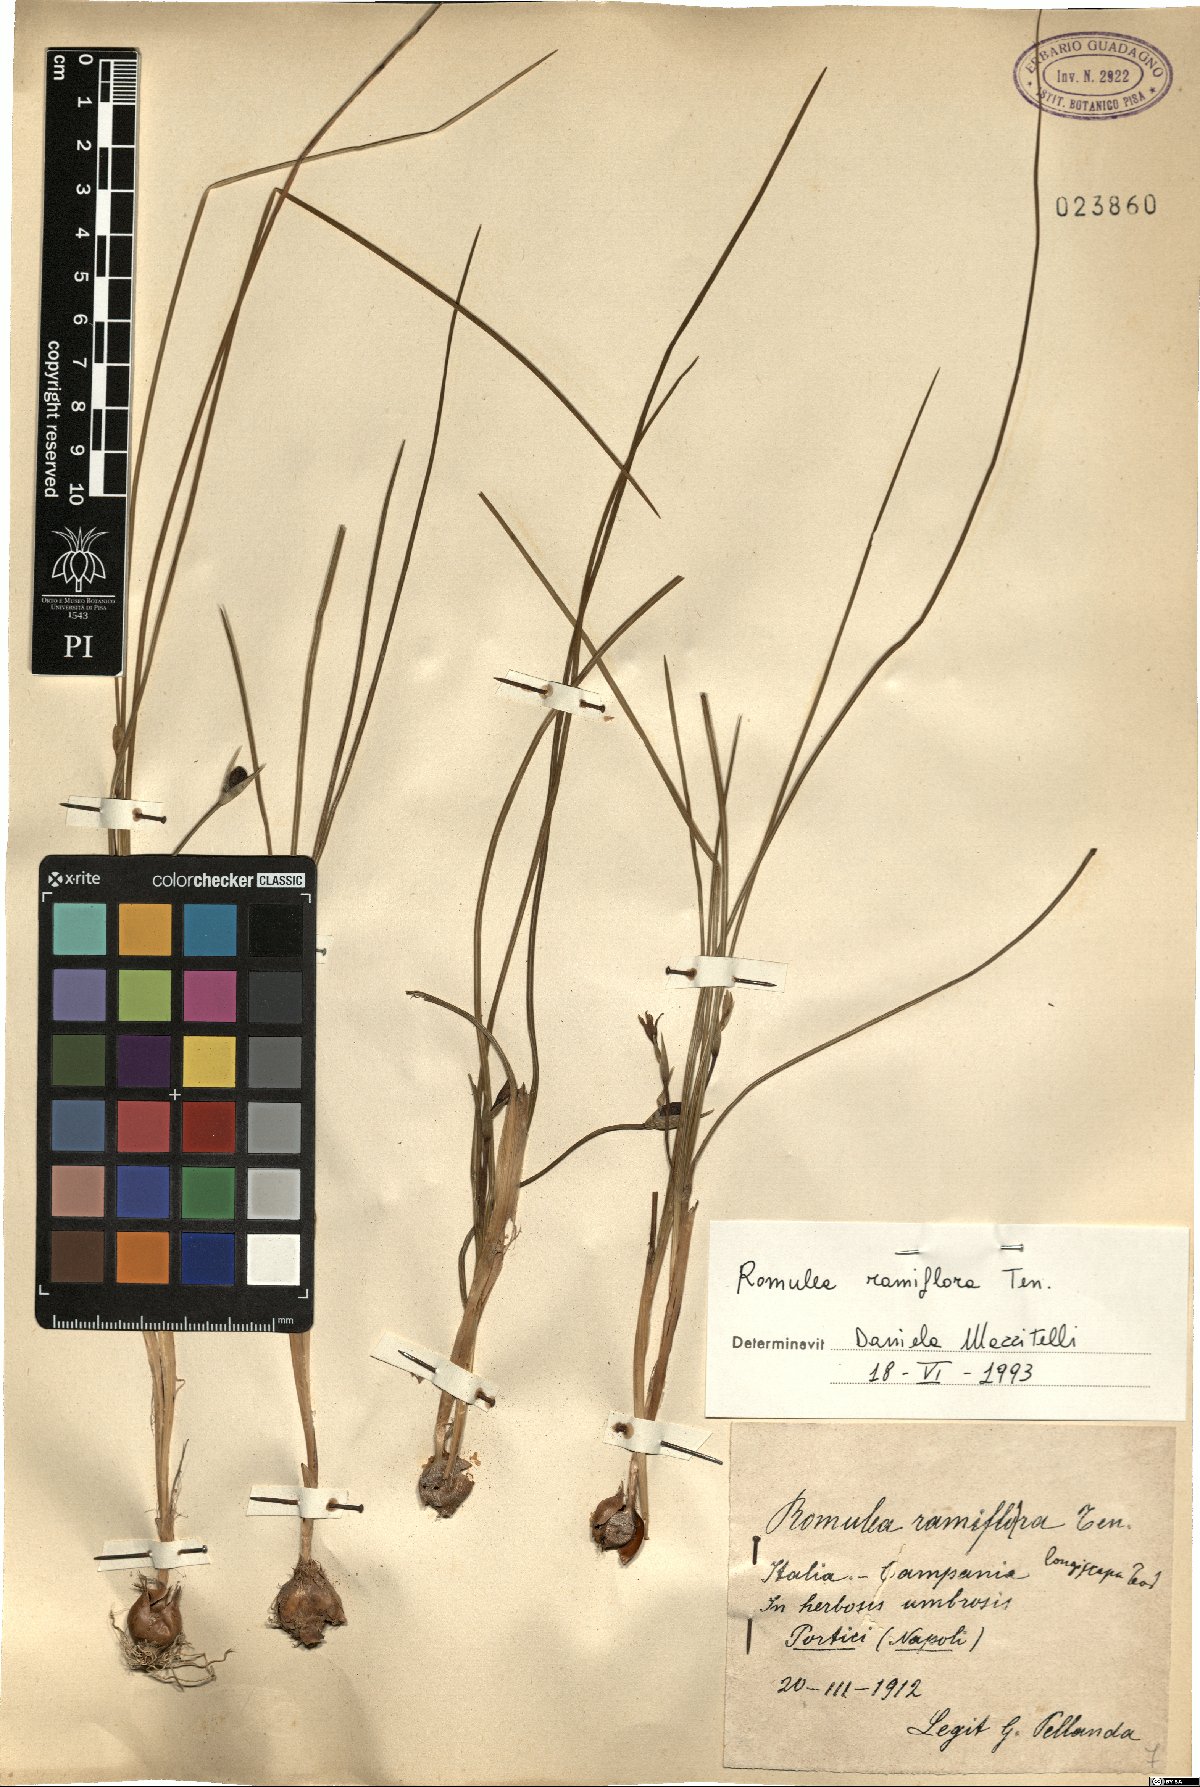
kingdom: Plantae
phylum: Tracheophyta
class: Liliopsida
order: Asparagales
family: Iridaceae
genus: Romulea
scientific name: Romulea ramiflora
